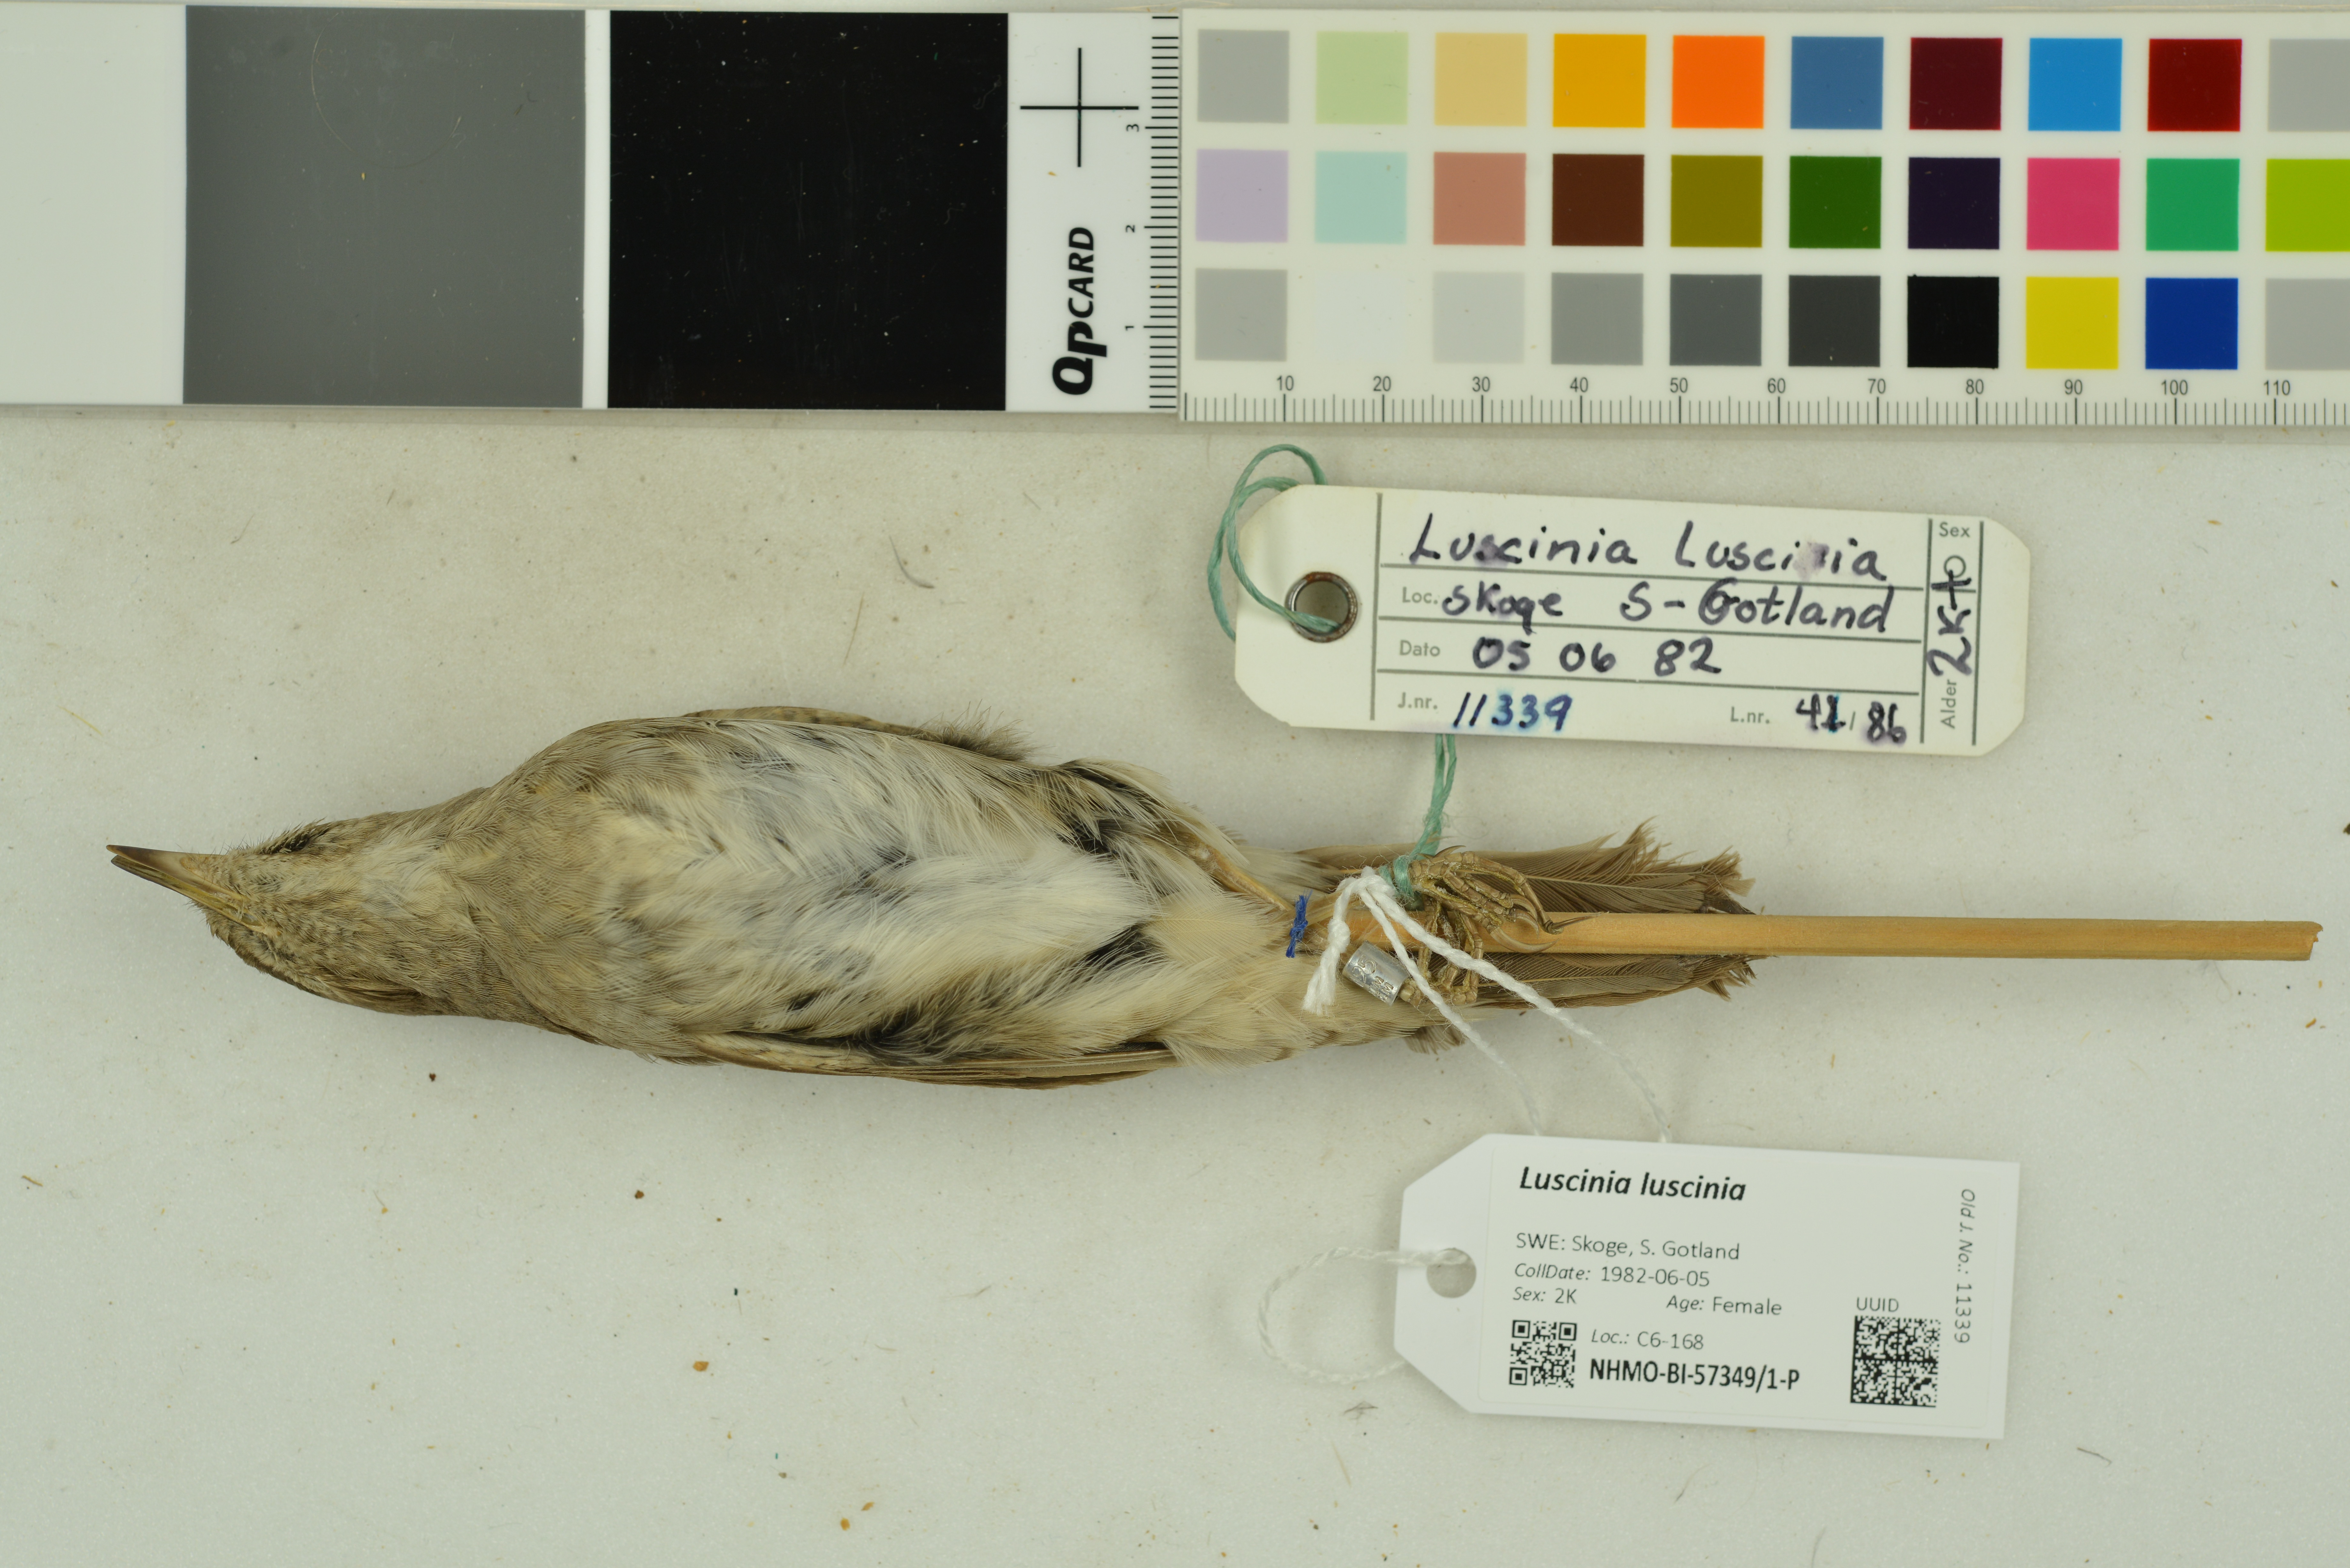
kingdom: Animalia
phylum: Chordata
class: Aves
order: Passeriformes
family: Muscicapidae
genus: Luscinia
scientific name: Luscinia luscinia
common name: Thrush nightingale
